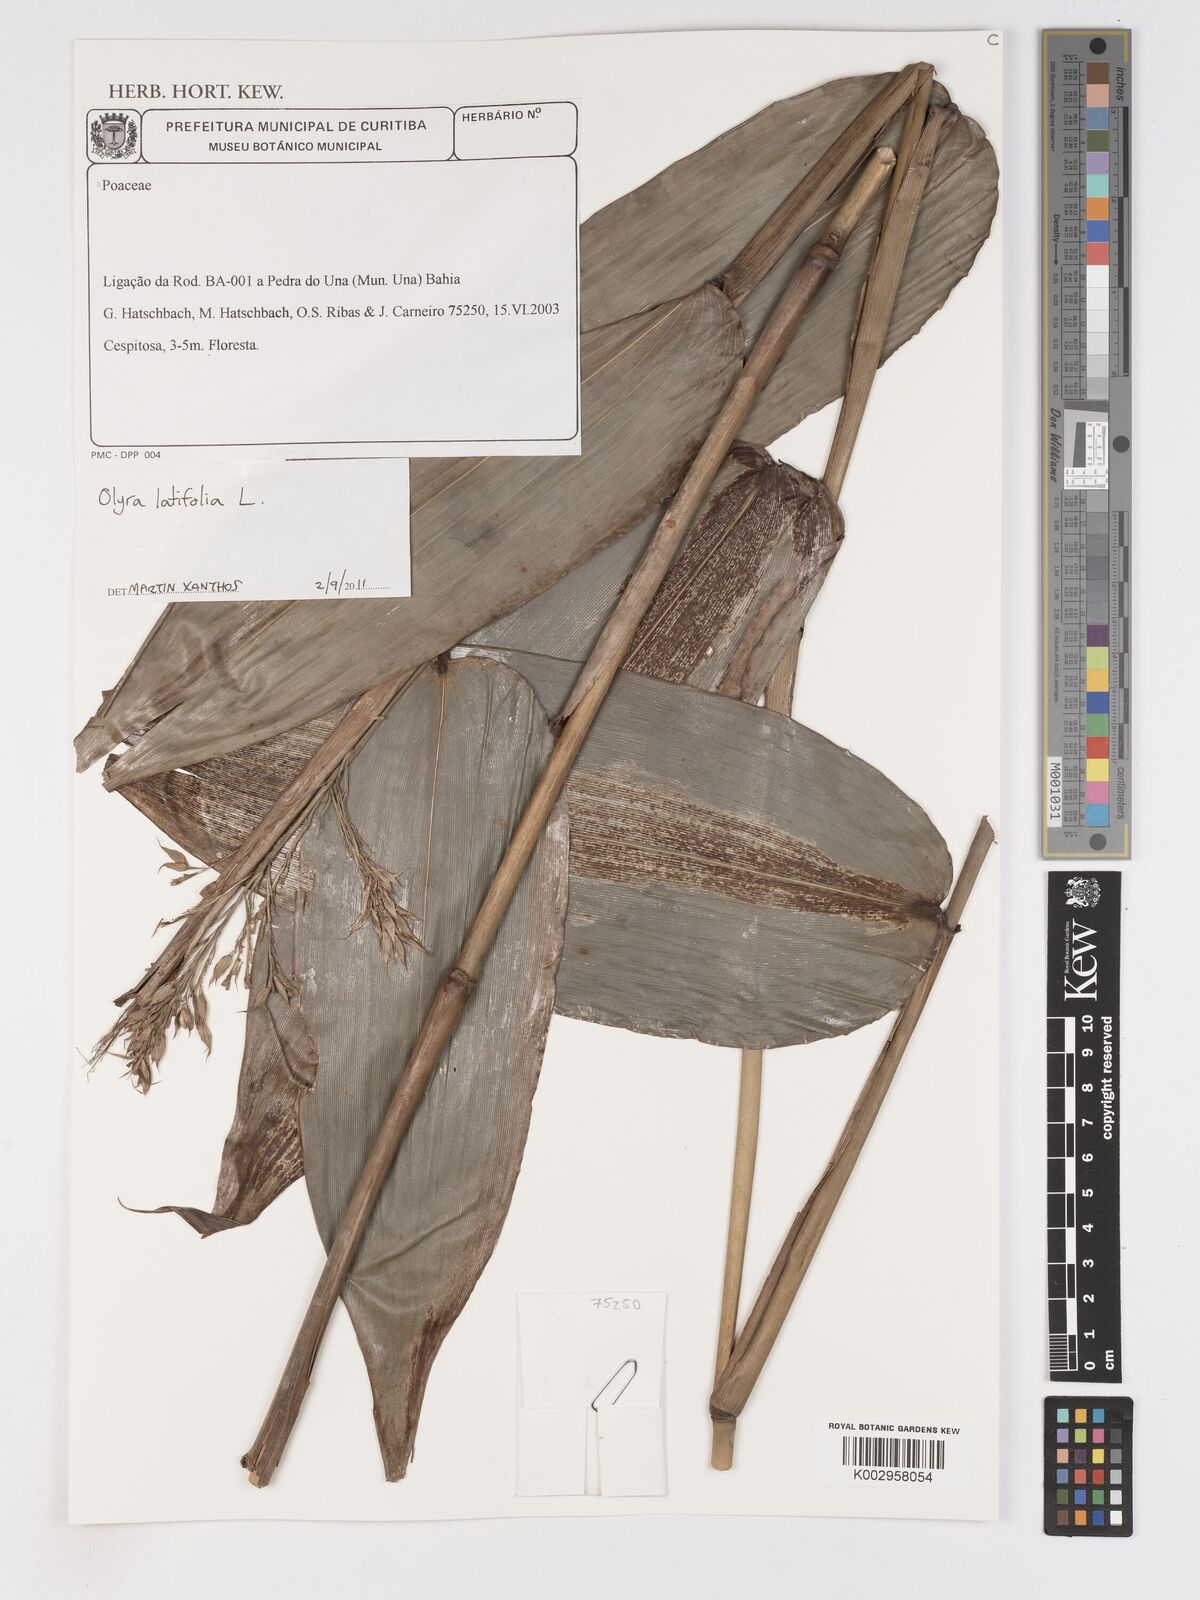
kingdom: Plantae
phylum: Tracheophyta
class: Liliopsida
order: Poales
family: Poaceae
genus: Olyra
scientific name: Olyra latifolia
